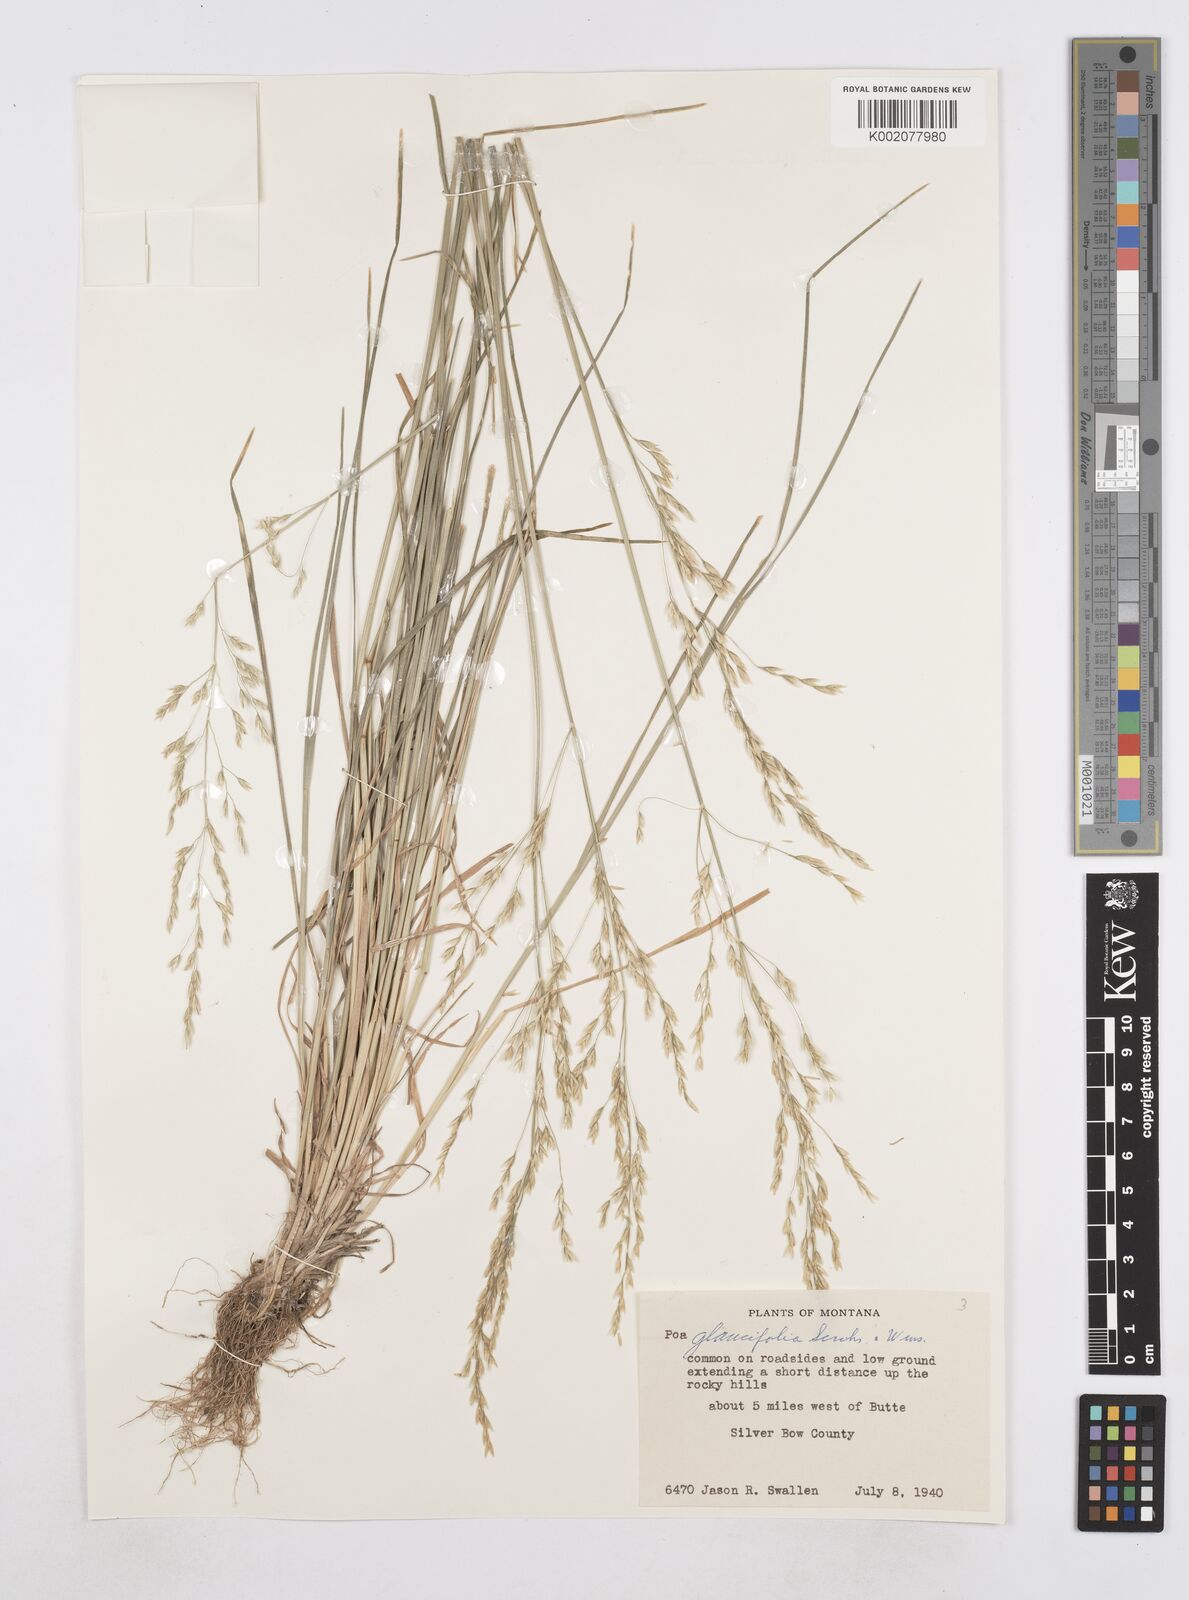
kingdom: Plantae
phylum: Tracheophyta
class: Liliopsida
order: Poales
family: Poaceae
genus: Poa
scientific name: Poa arida
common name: Plains bluegrass
